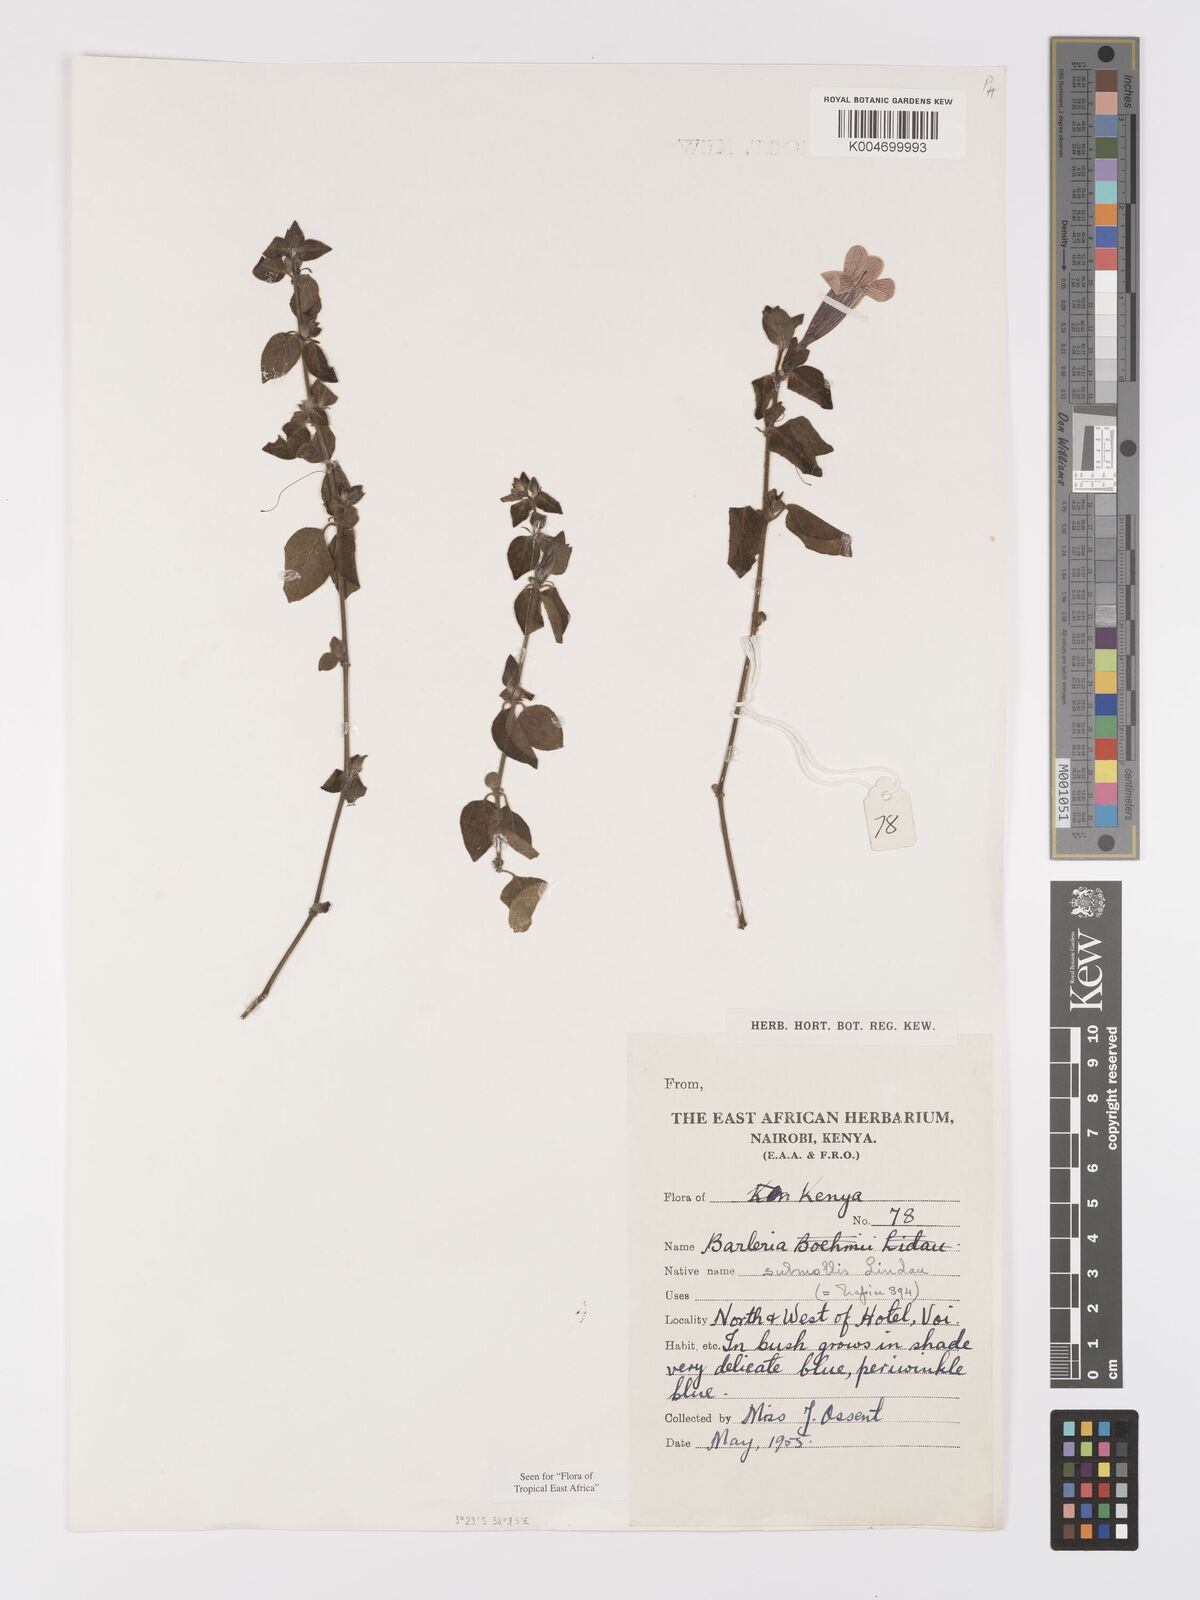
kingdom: Plantae
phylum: Tracheophyta
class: Magnoliopsida
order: Lamiales
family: Acanthaceae
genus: Barleria
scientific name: Barleria submollis
